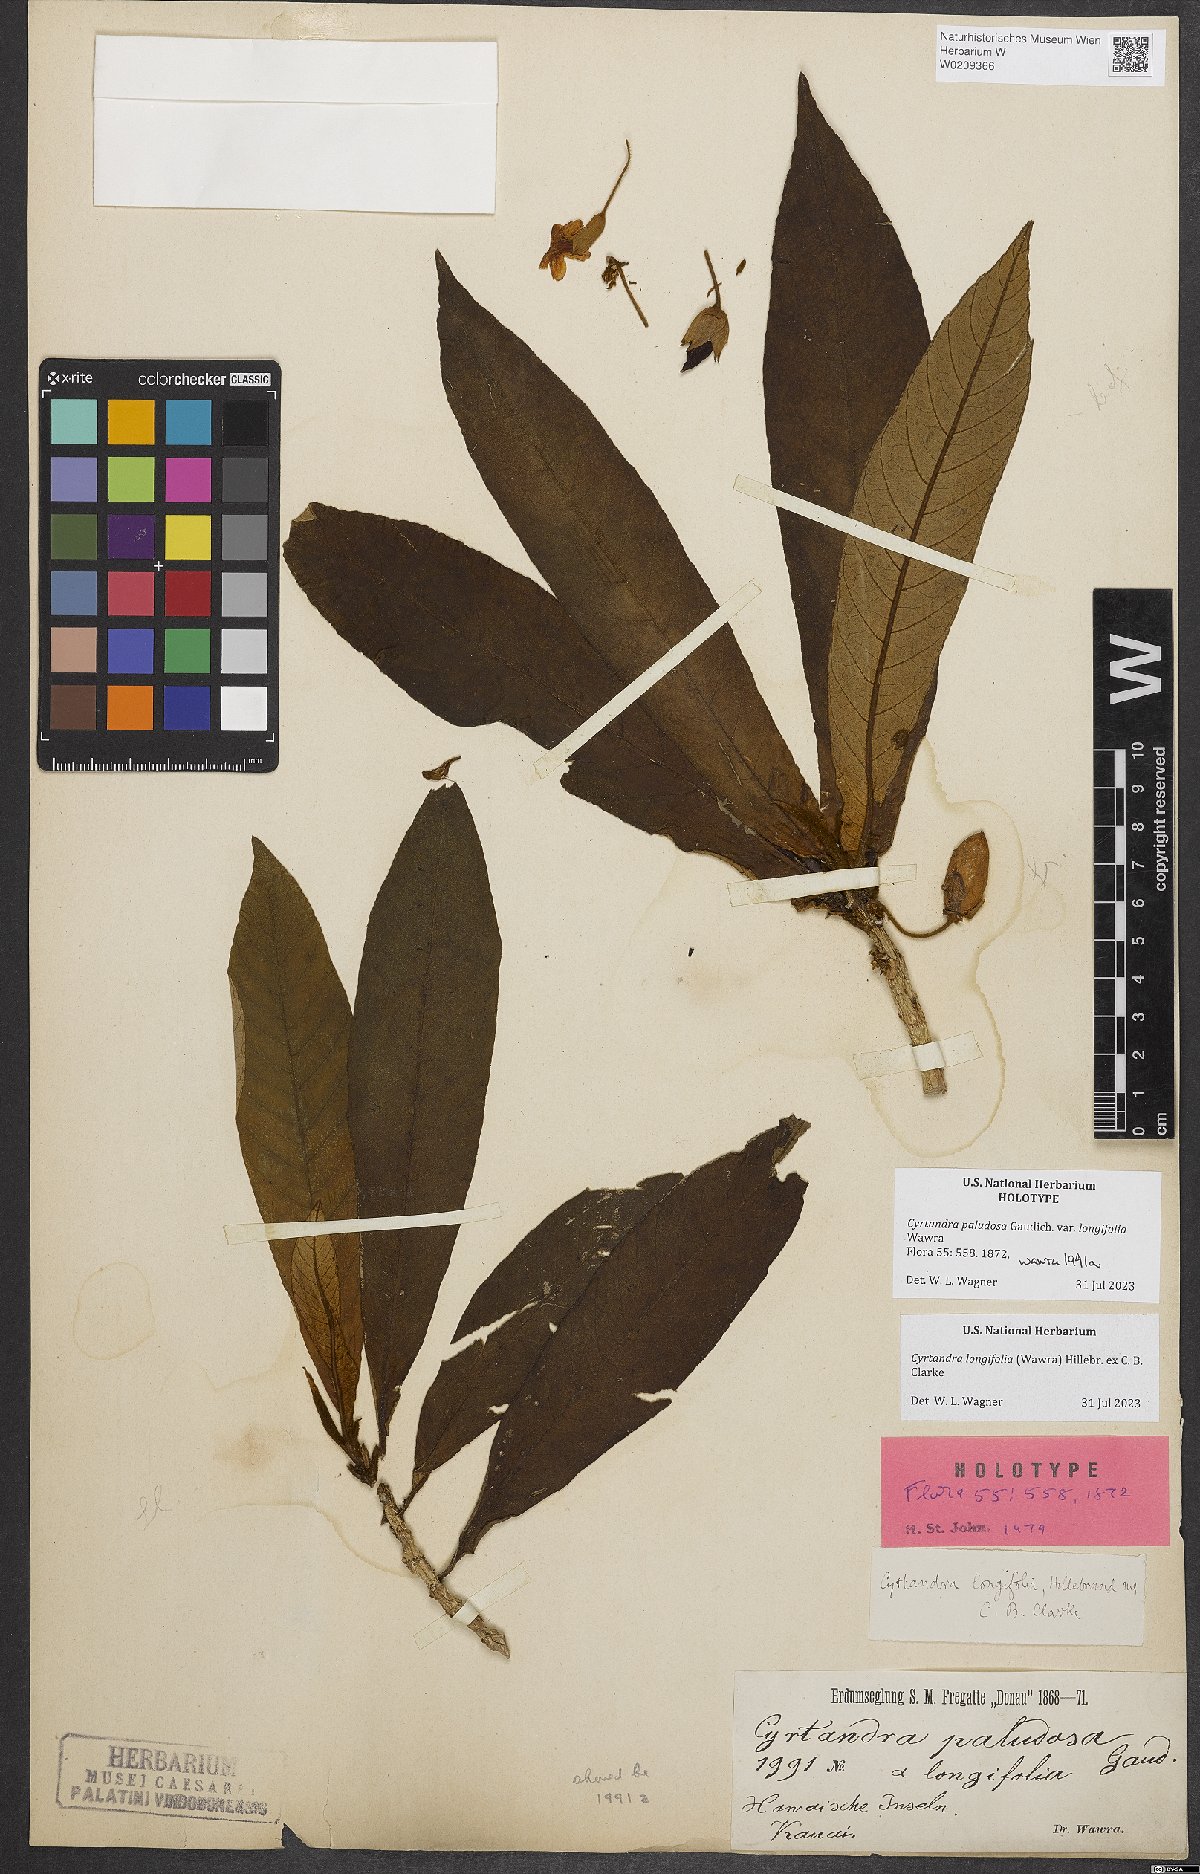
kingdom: Plantae
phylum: Tracheophyta
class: Magnoliopsida
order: Lamiales
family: Gesneriaceae
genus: Cyrtandra
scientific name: Cyrtandra longifolia
